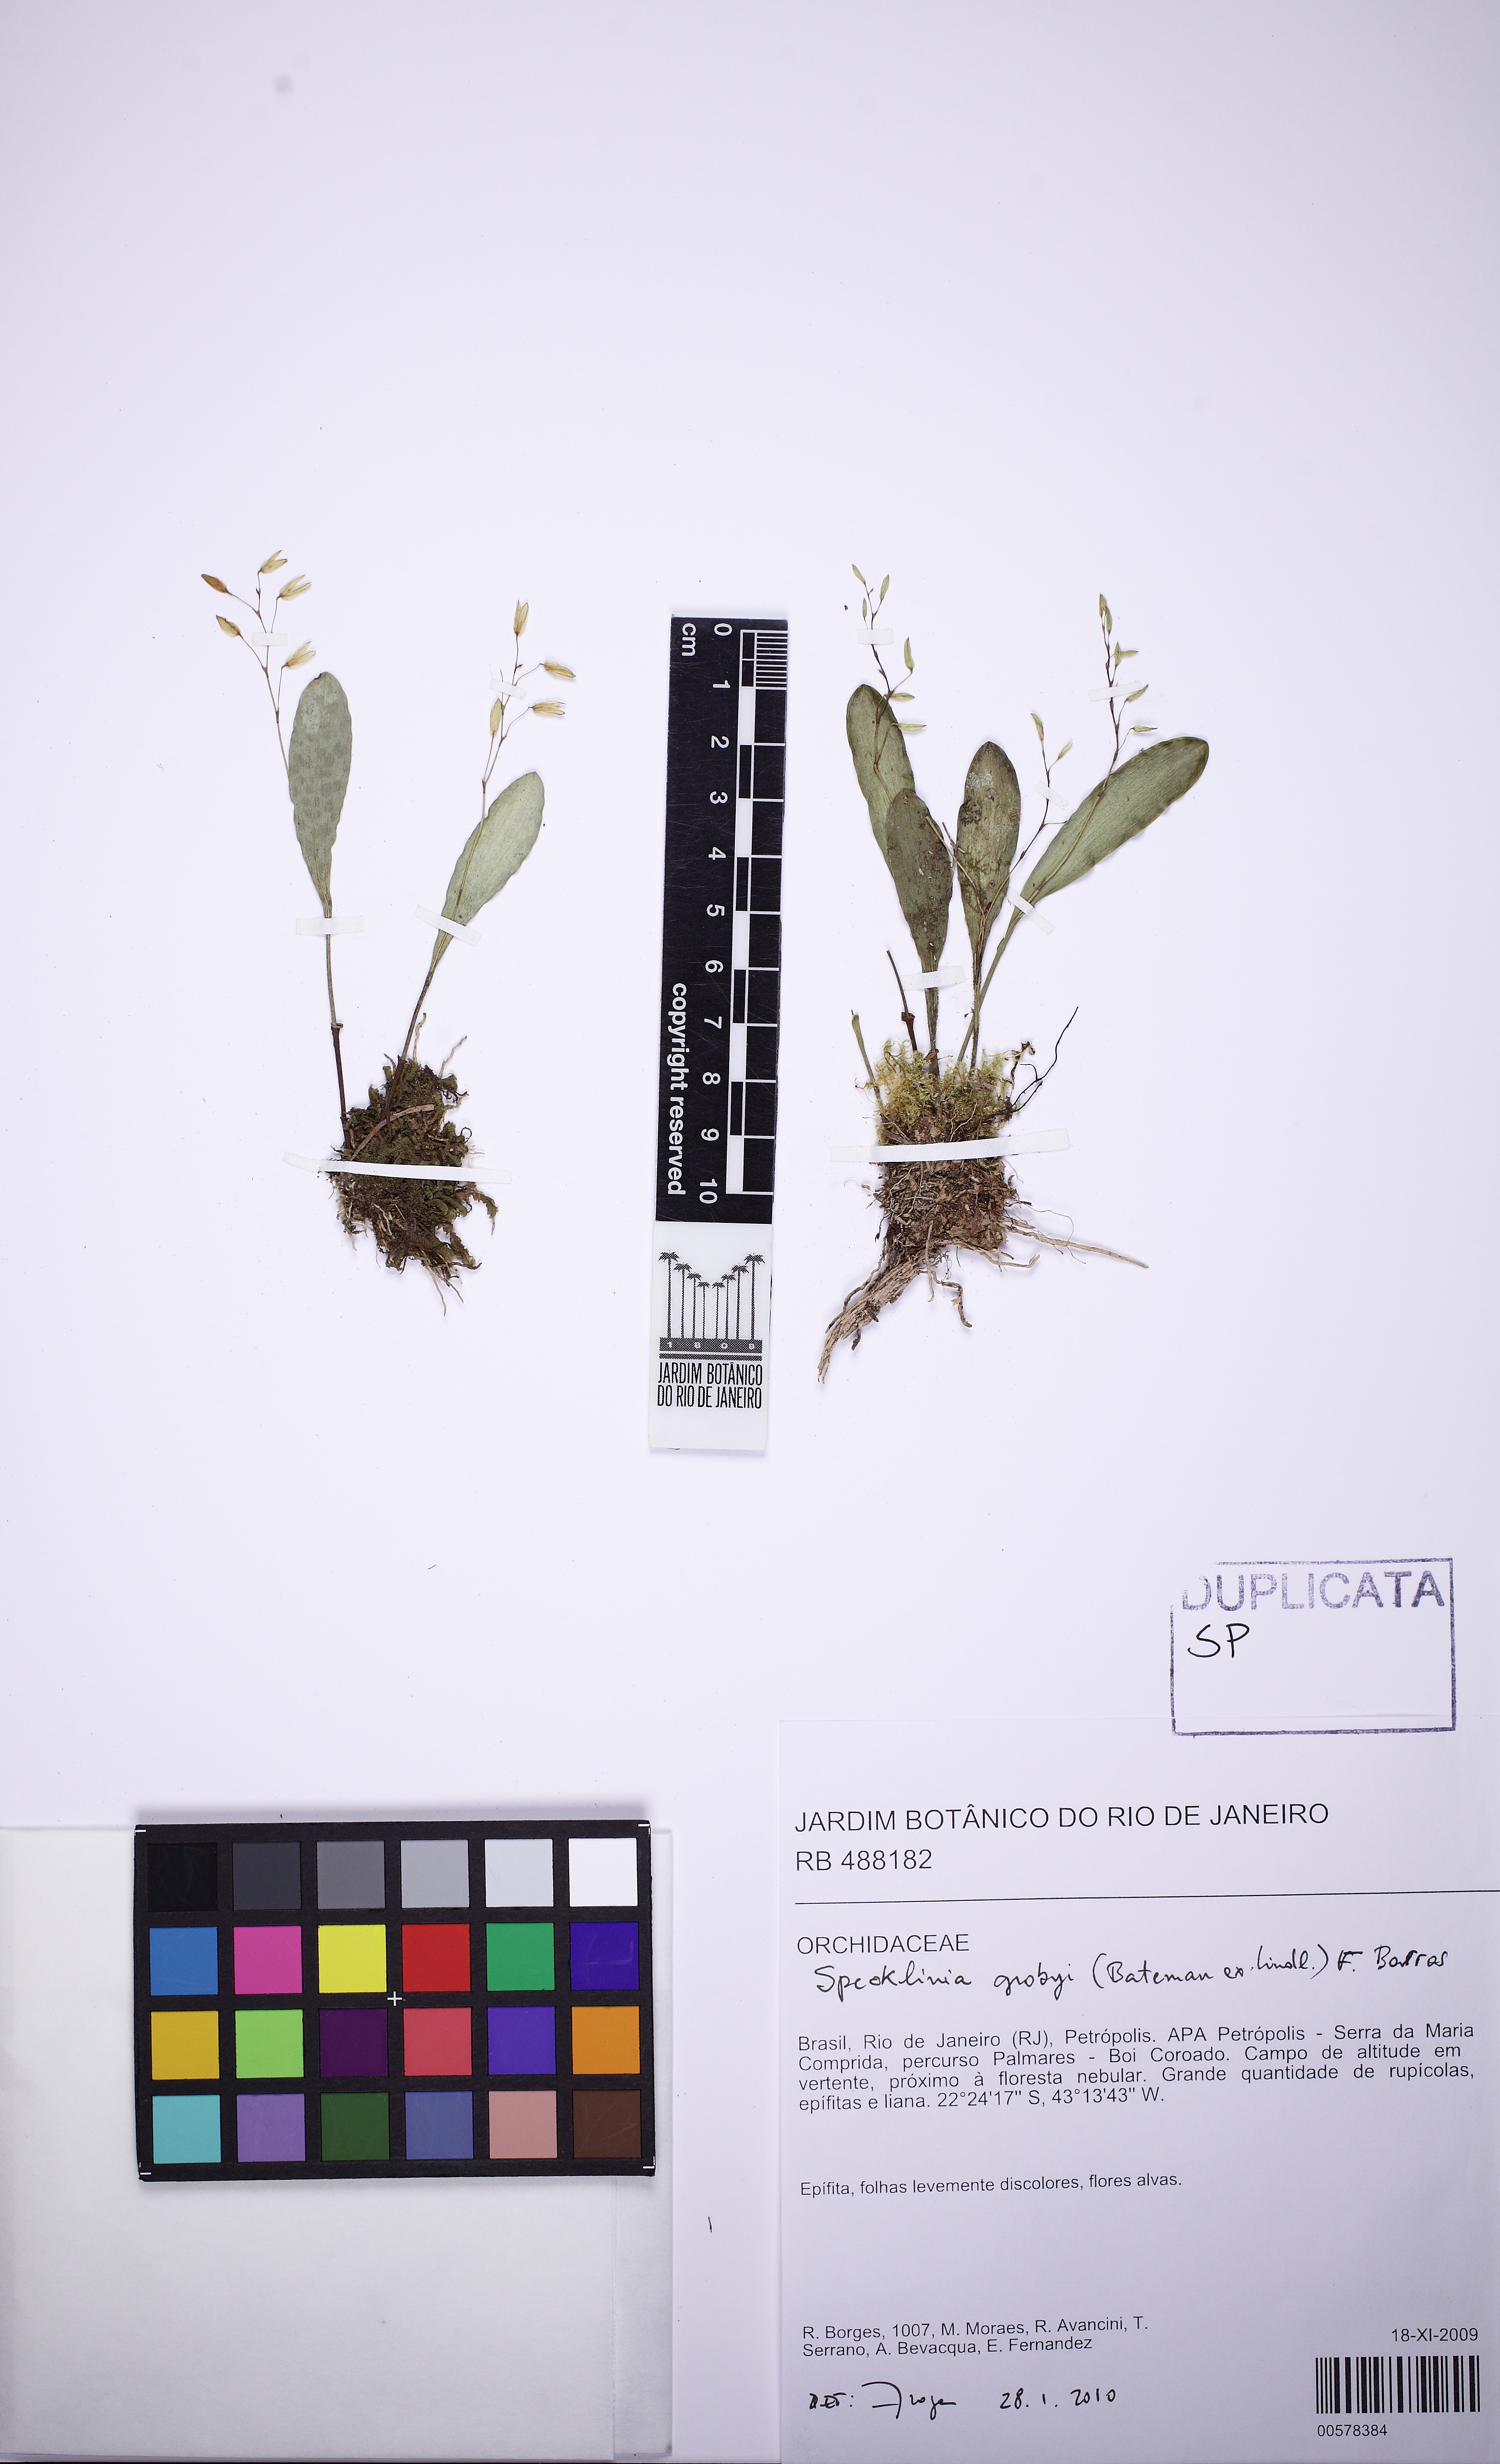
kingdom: Plantae
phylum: Tracheophyta
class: Liliopsida
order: Asparagales
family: Orchidaceae
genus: Specklinia
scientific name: Specklinia grobyi
